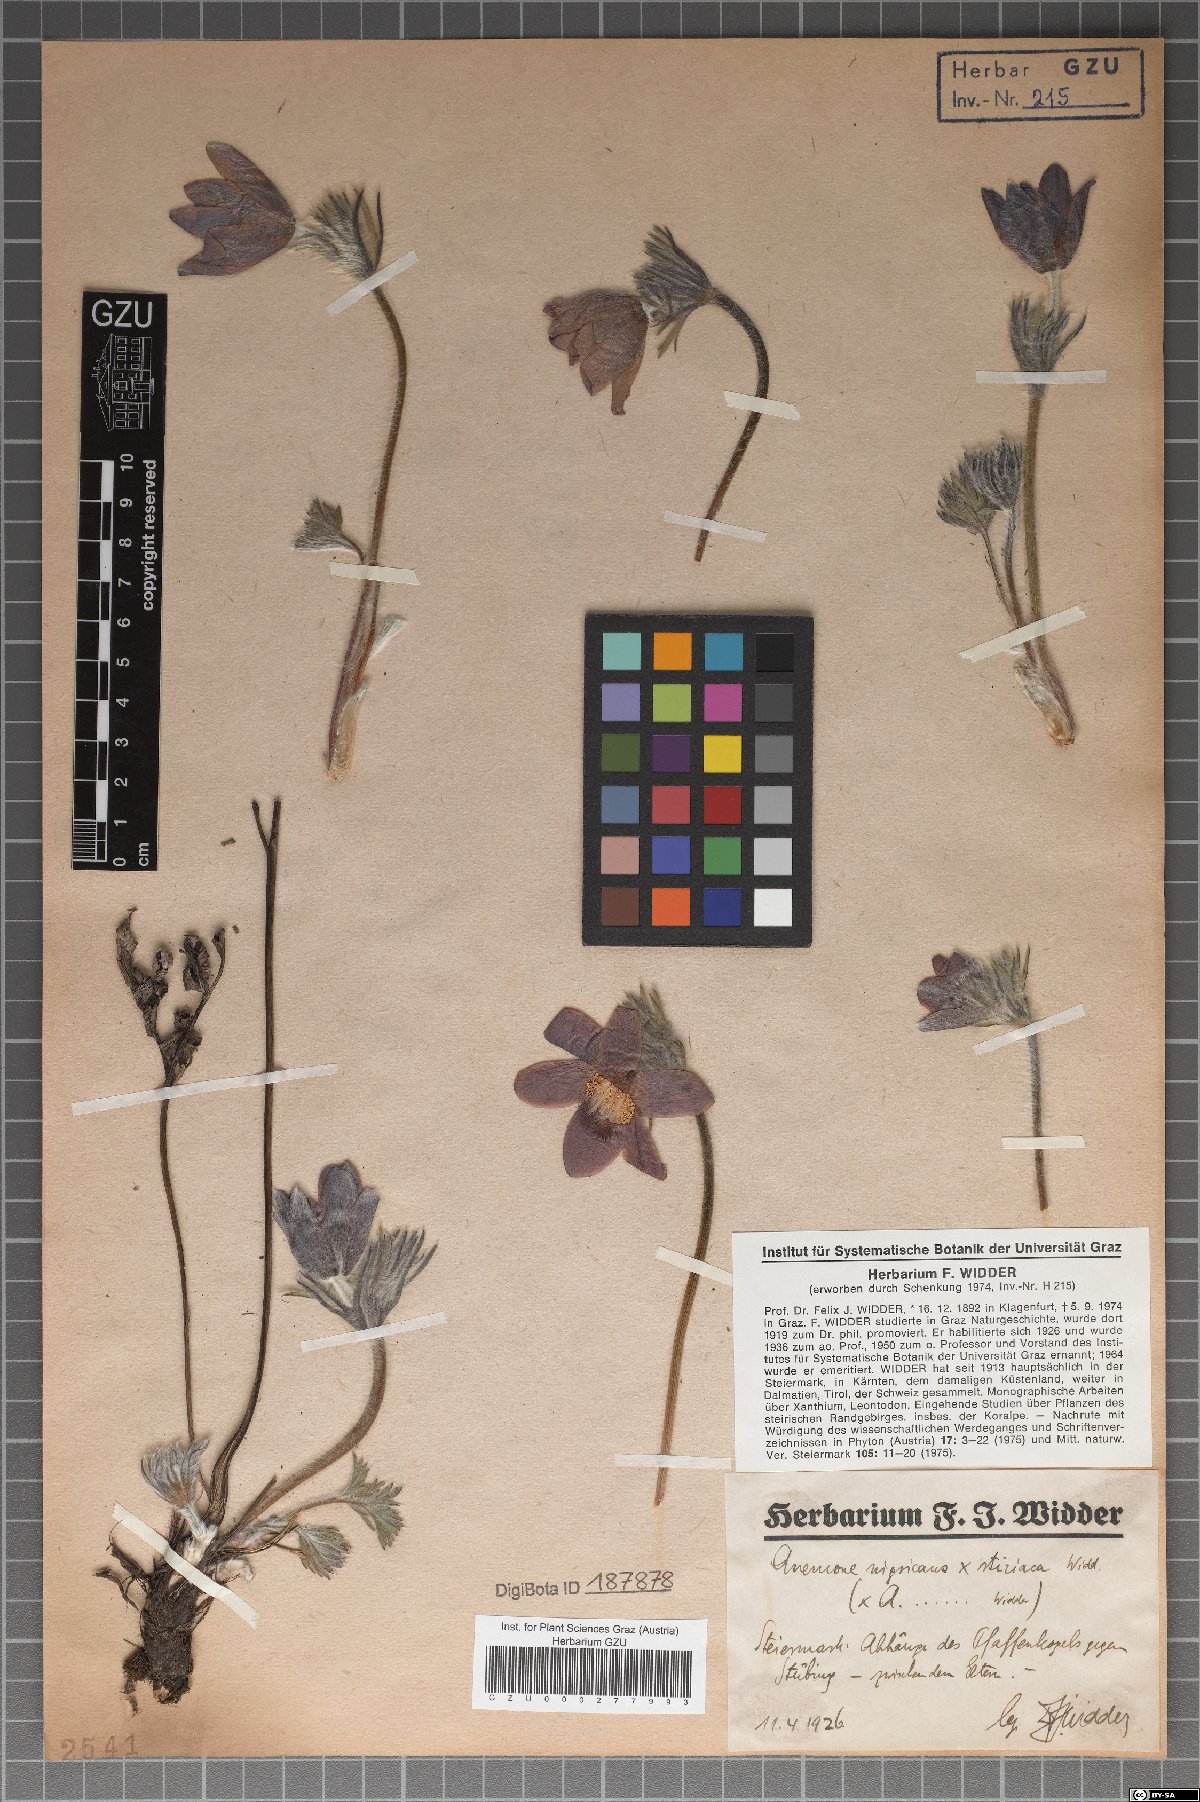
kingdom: Plantae
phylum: Tracheophyta
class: Magnoliopsida
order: Ranunculales
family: Ranunculaceae
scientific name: Ranunculaceae
